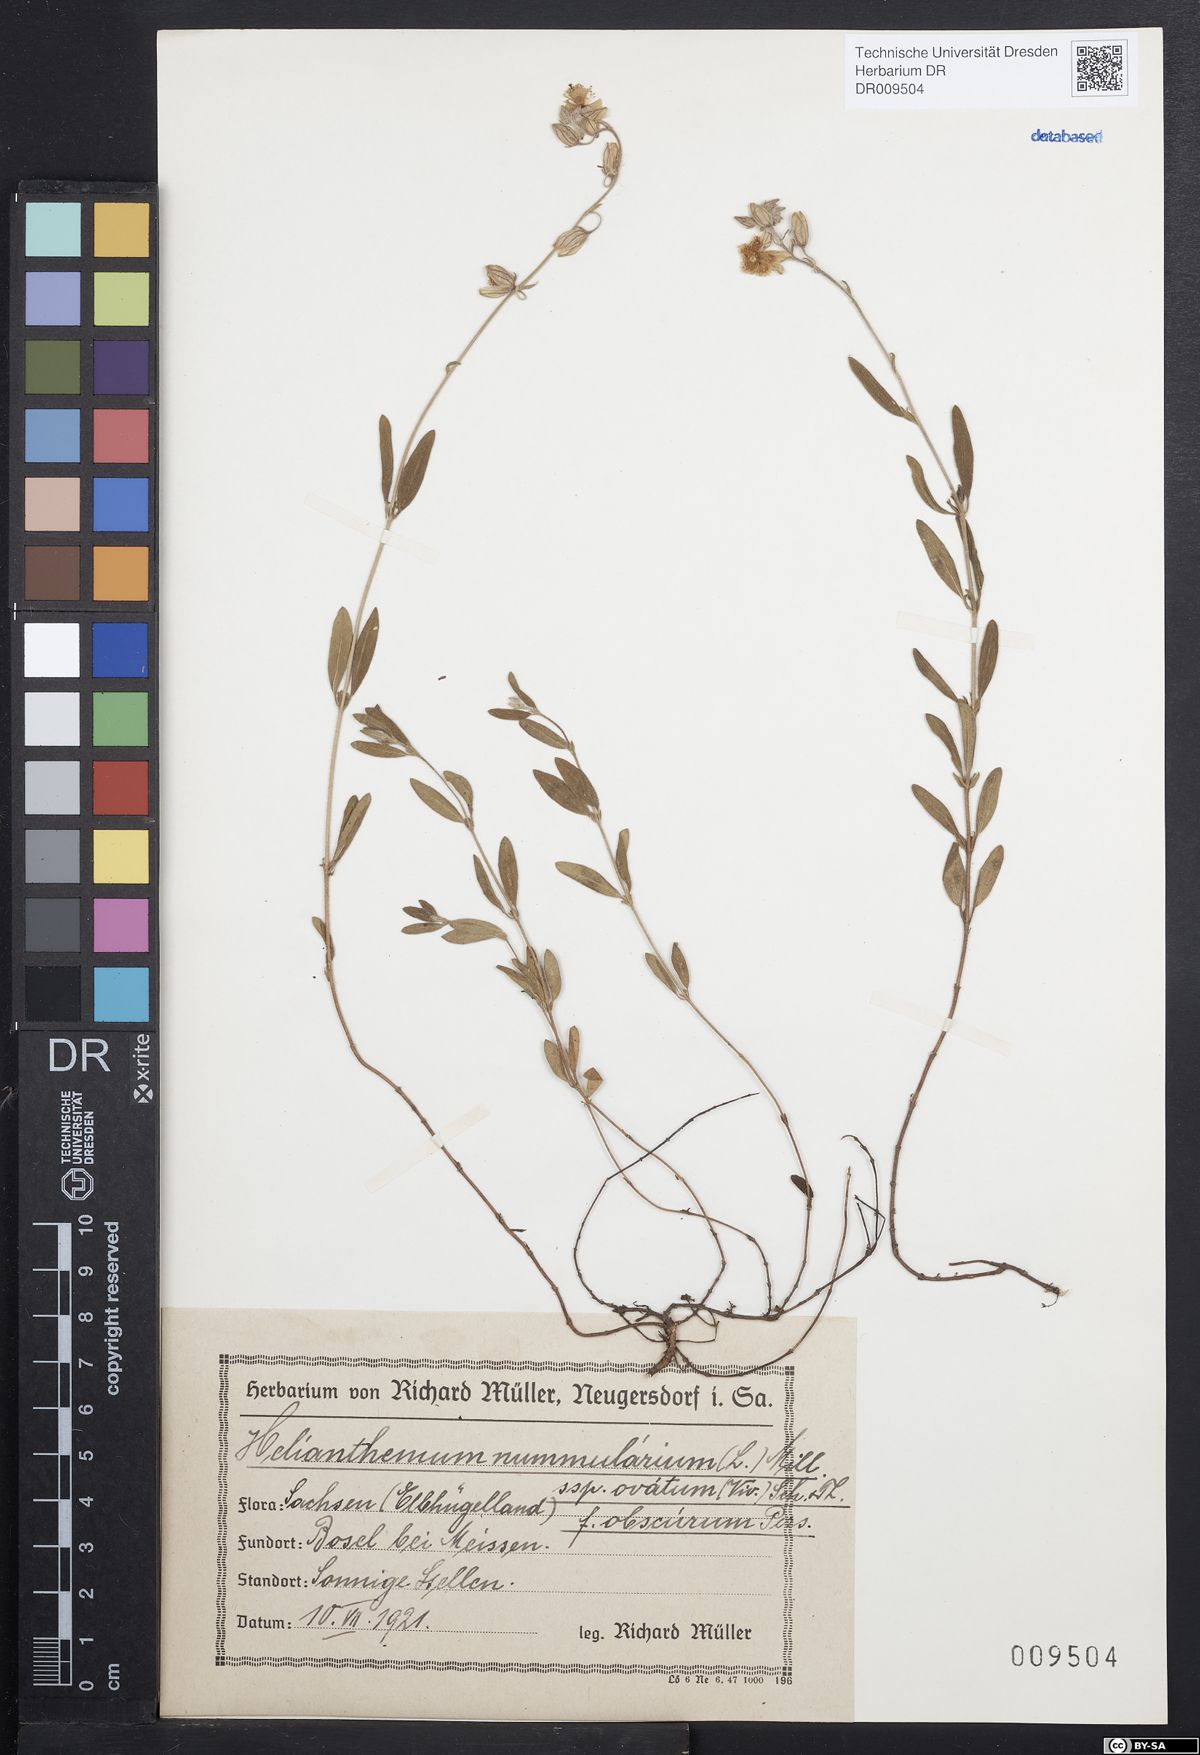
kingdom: Plantae
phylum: Tracheophyta
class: Magnoliopsida
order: Malvales
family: Cistaceae
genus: Helianthemum
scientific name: Helianthemum nummularium
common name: Common rock-rose
